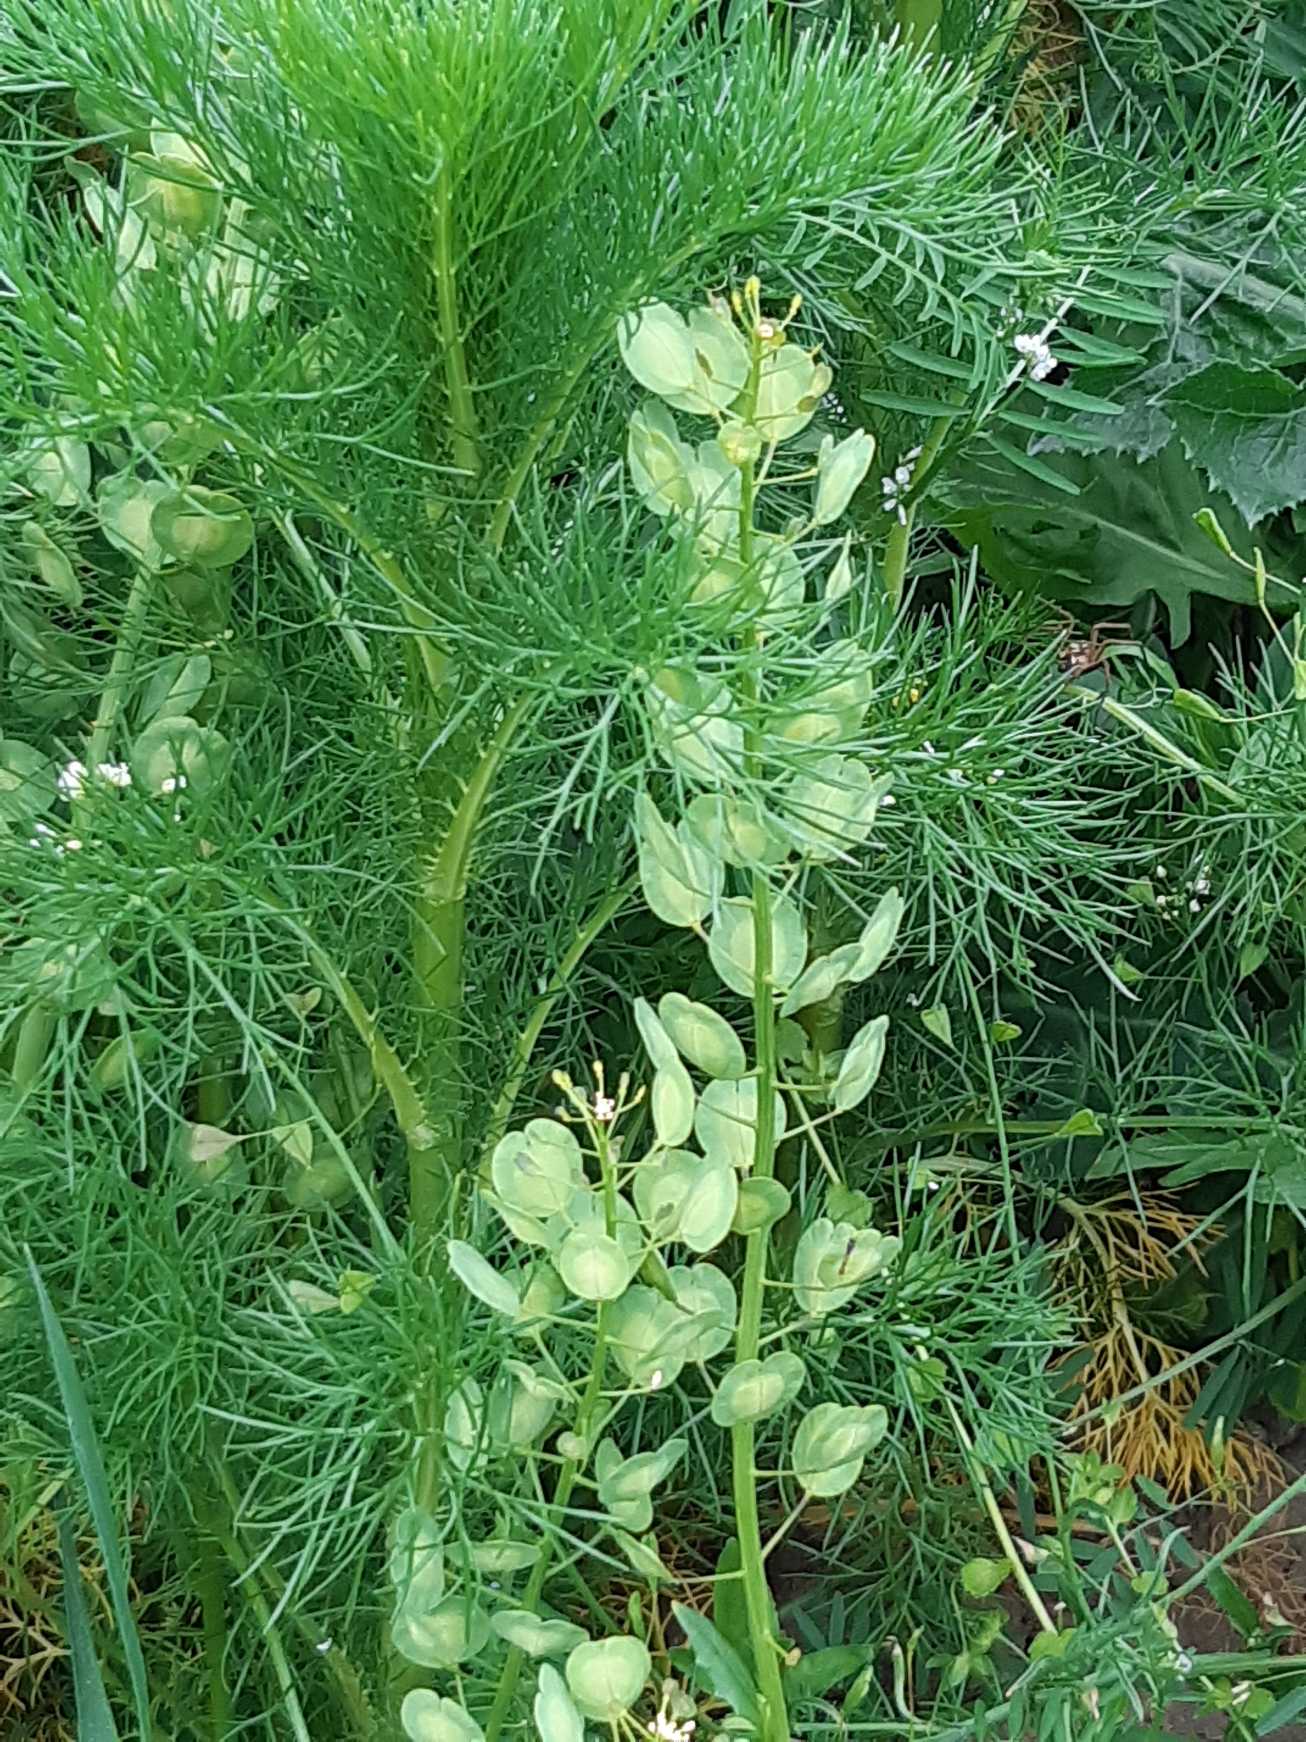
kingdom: Plantae
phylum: Tracheophyta
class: Magnoliopsida
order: Brassicales
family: Brassicaceae
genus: Thlaspi
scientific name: Thlaspi arvense
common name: Almindelig pengeurt
